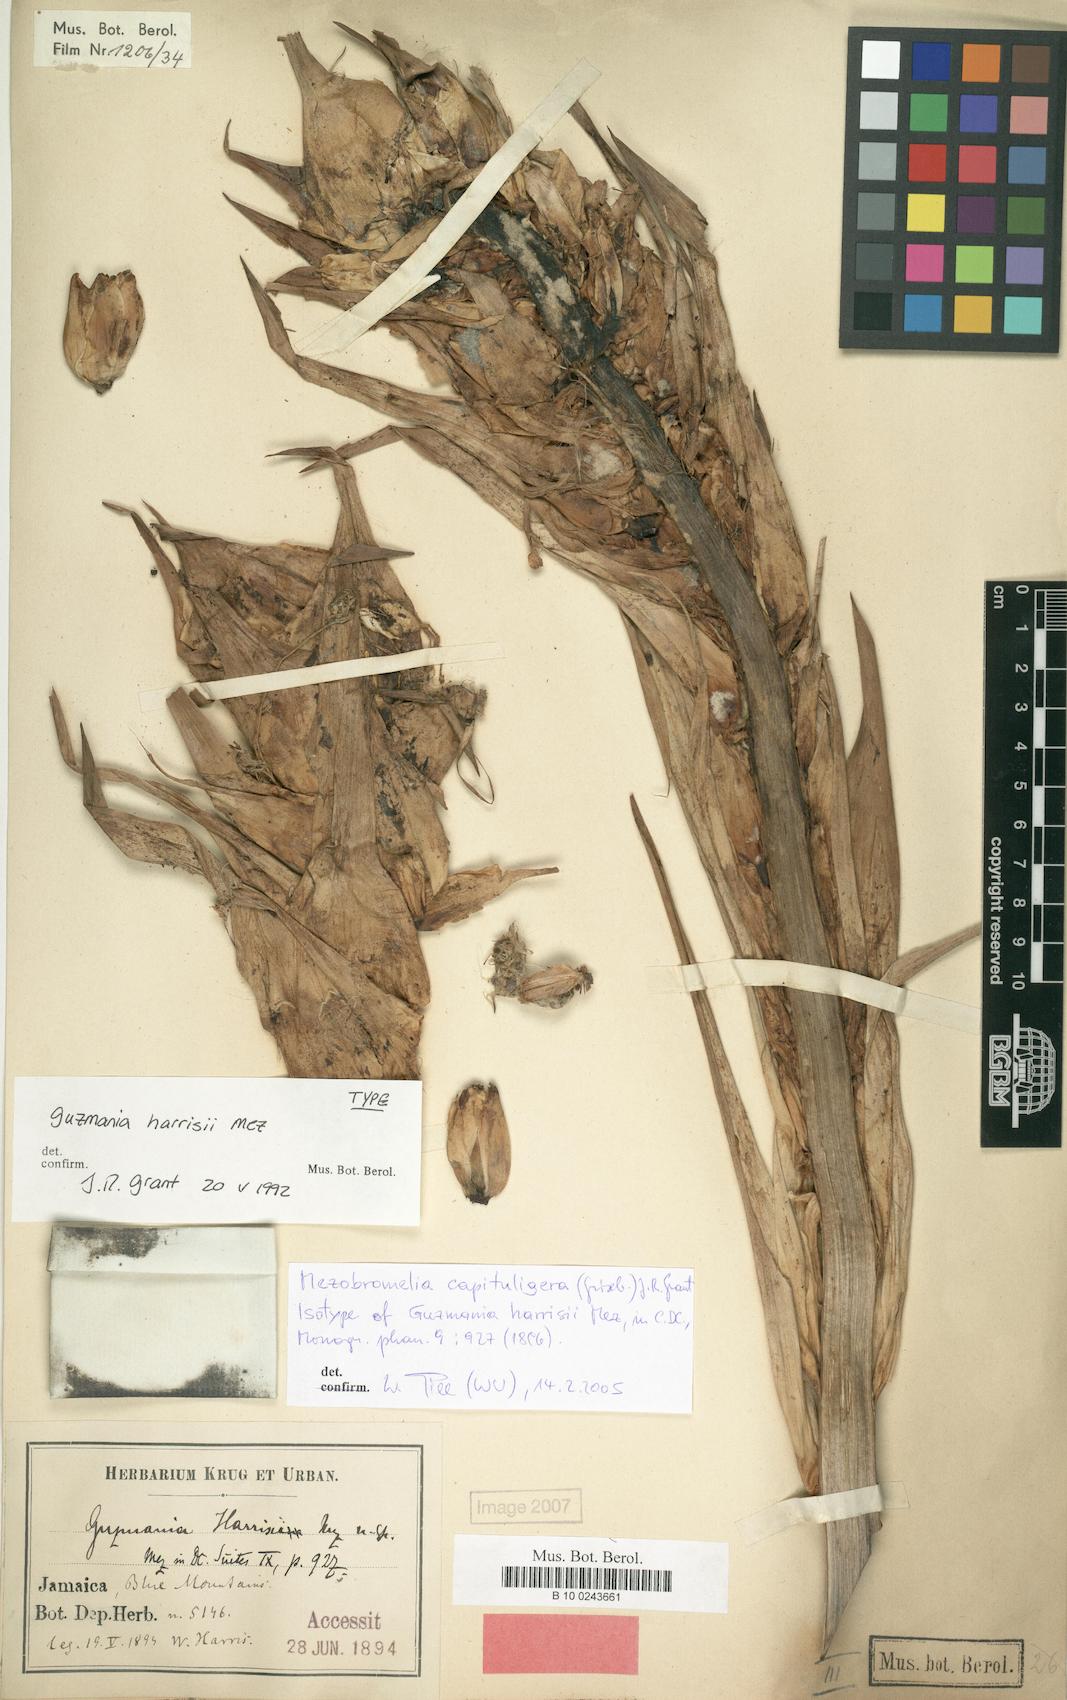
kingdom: Plantae
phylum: Tracheophyta
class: Liliopsida
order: Poales
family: Bromeliaceae
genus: Cipuropsis
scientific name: Cipuropsis capituligera
